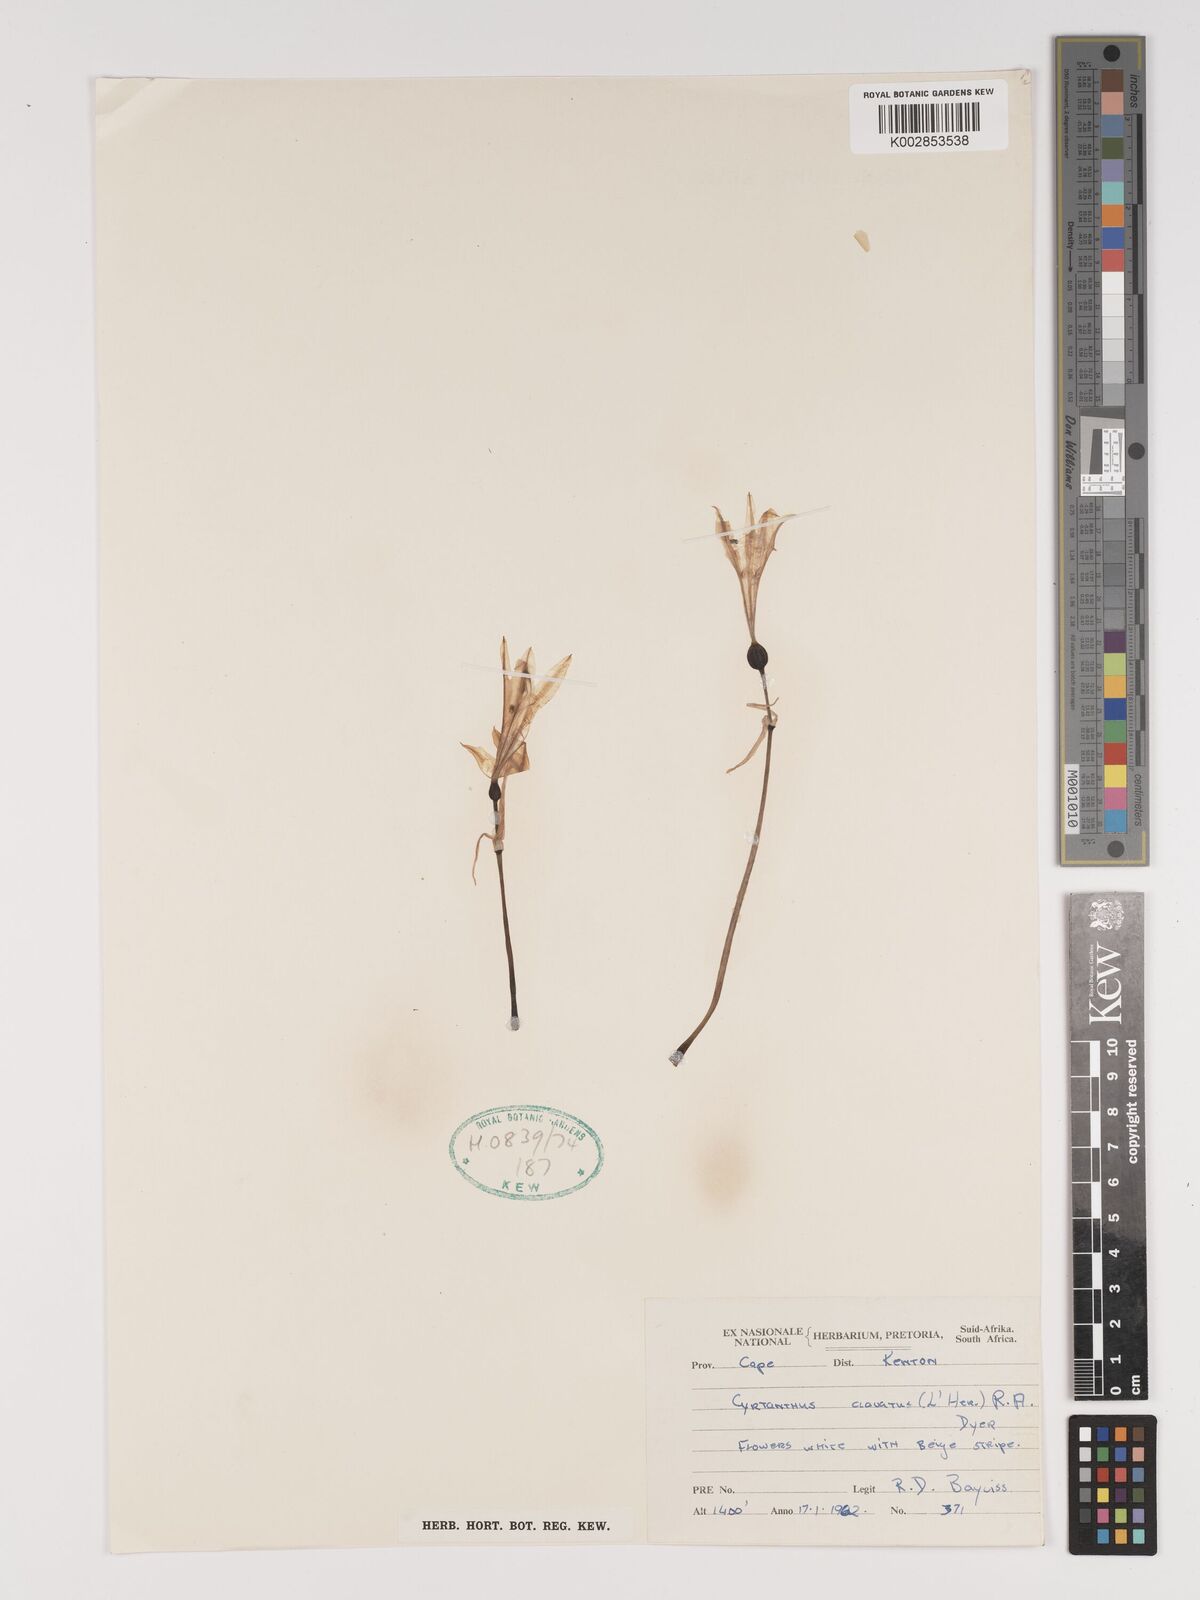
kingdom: Plantae
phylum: Tracheophyta
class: Liliopsida
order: Asparagales
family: Amaryllidaceae
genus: Cyrtanthus
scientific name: Cyrtanthus clavatus
